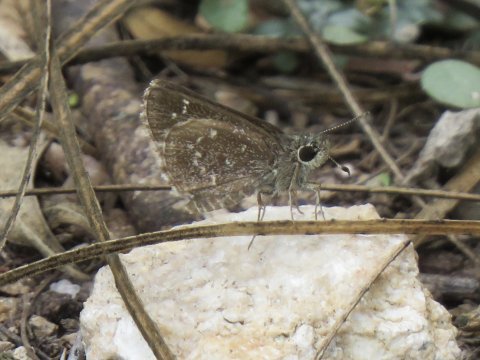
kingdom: Animalia
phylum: Arthropoda
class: Insecta
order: Lepidoptera
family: Hesperiidae
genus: Mastor
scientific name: Mastor celia
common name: Celia's Roadside-Skipper
